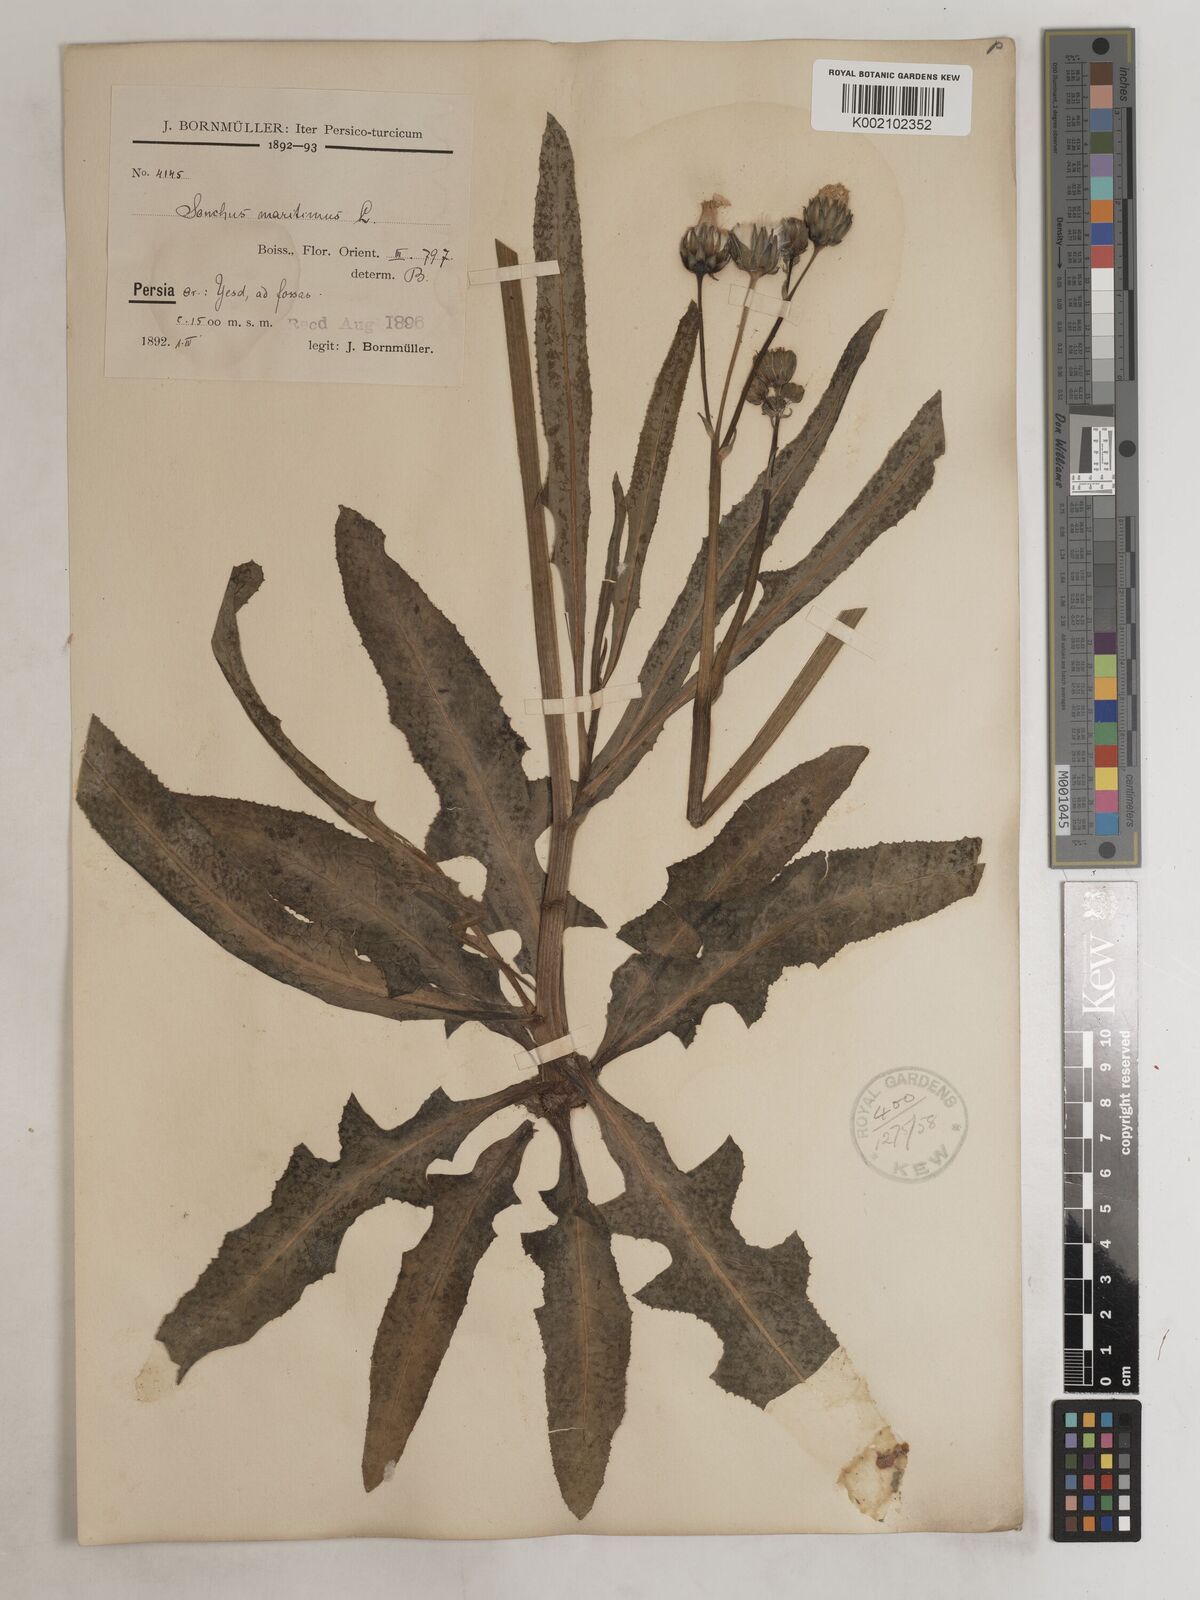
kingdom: Plantae
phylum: Tracheophyta
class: Magnoliopsida
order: Asterales
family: Asteraceae
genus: Sonchus
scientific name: Sonchus maritimus
